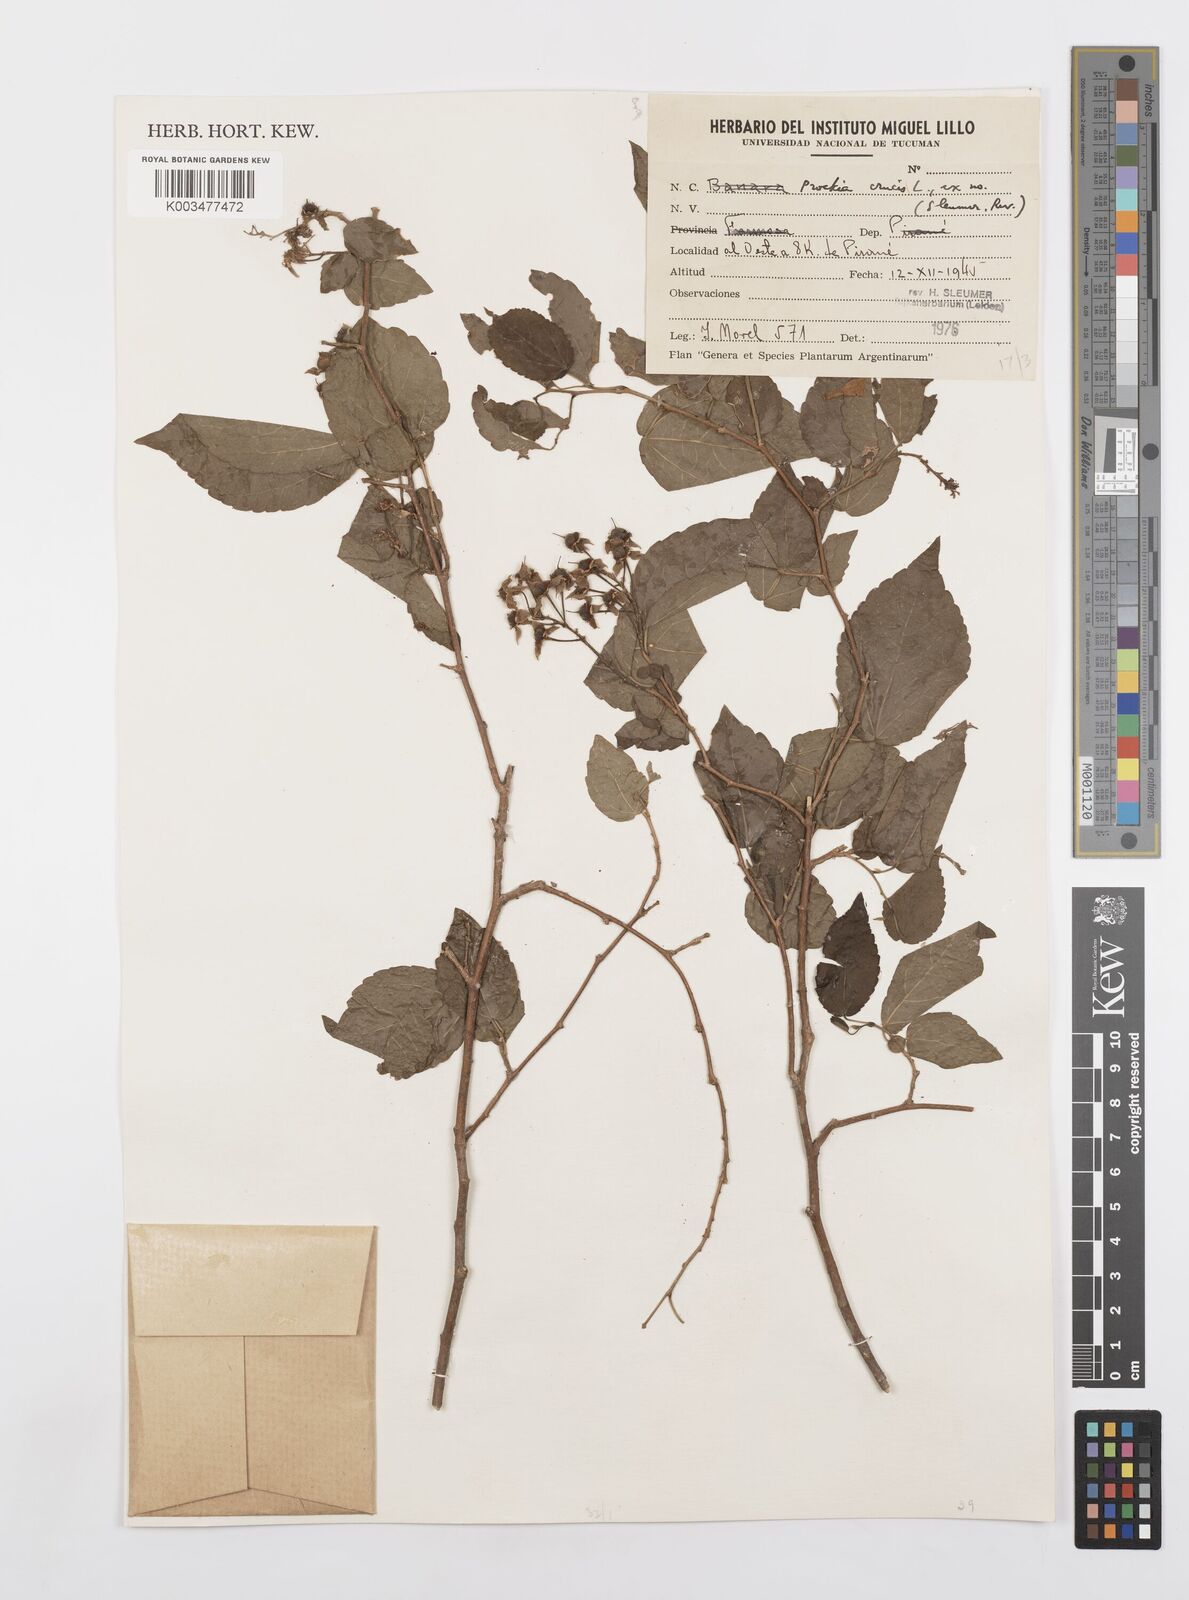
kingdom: Plantae
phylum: Tracheophyta
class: Magnoliopsida
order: Malpighiales
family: Salicaceae
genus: Prockia
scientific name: Prockia crucis
